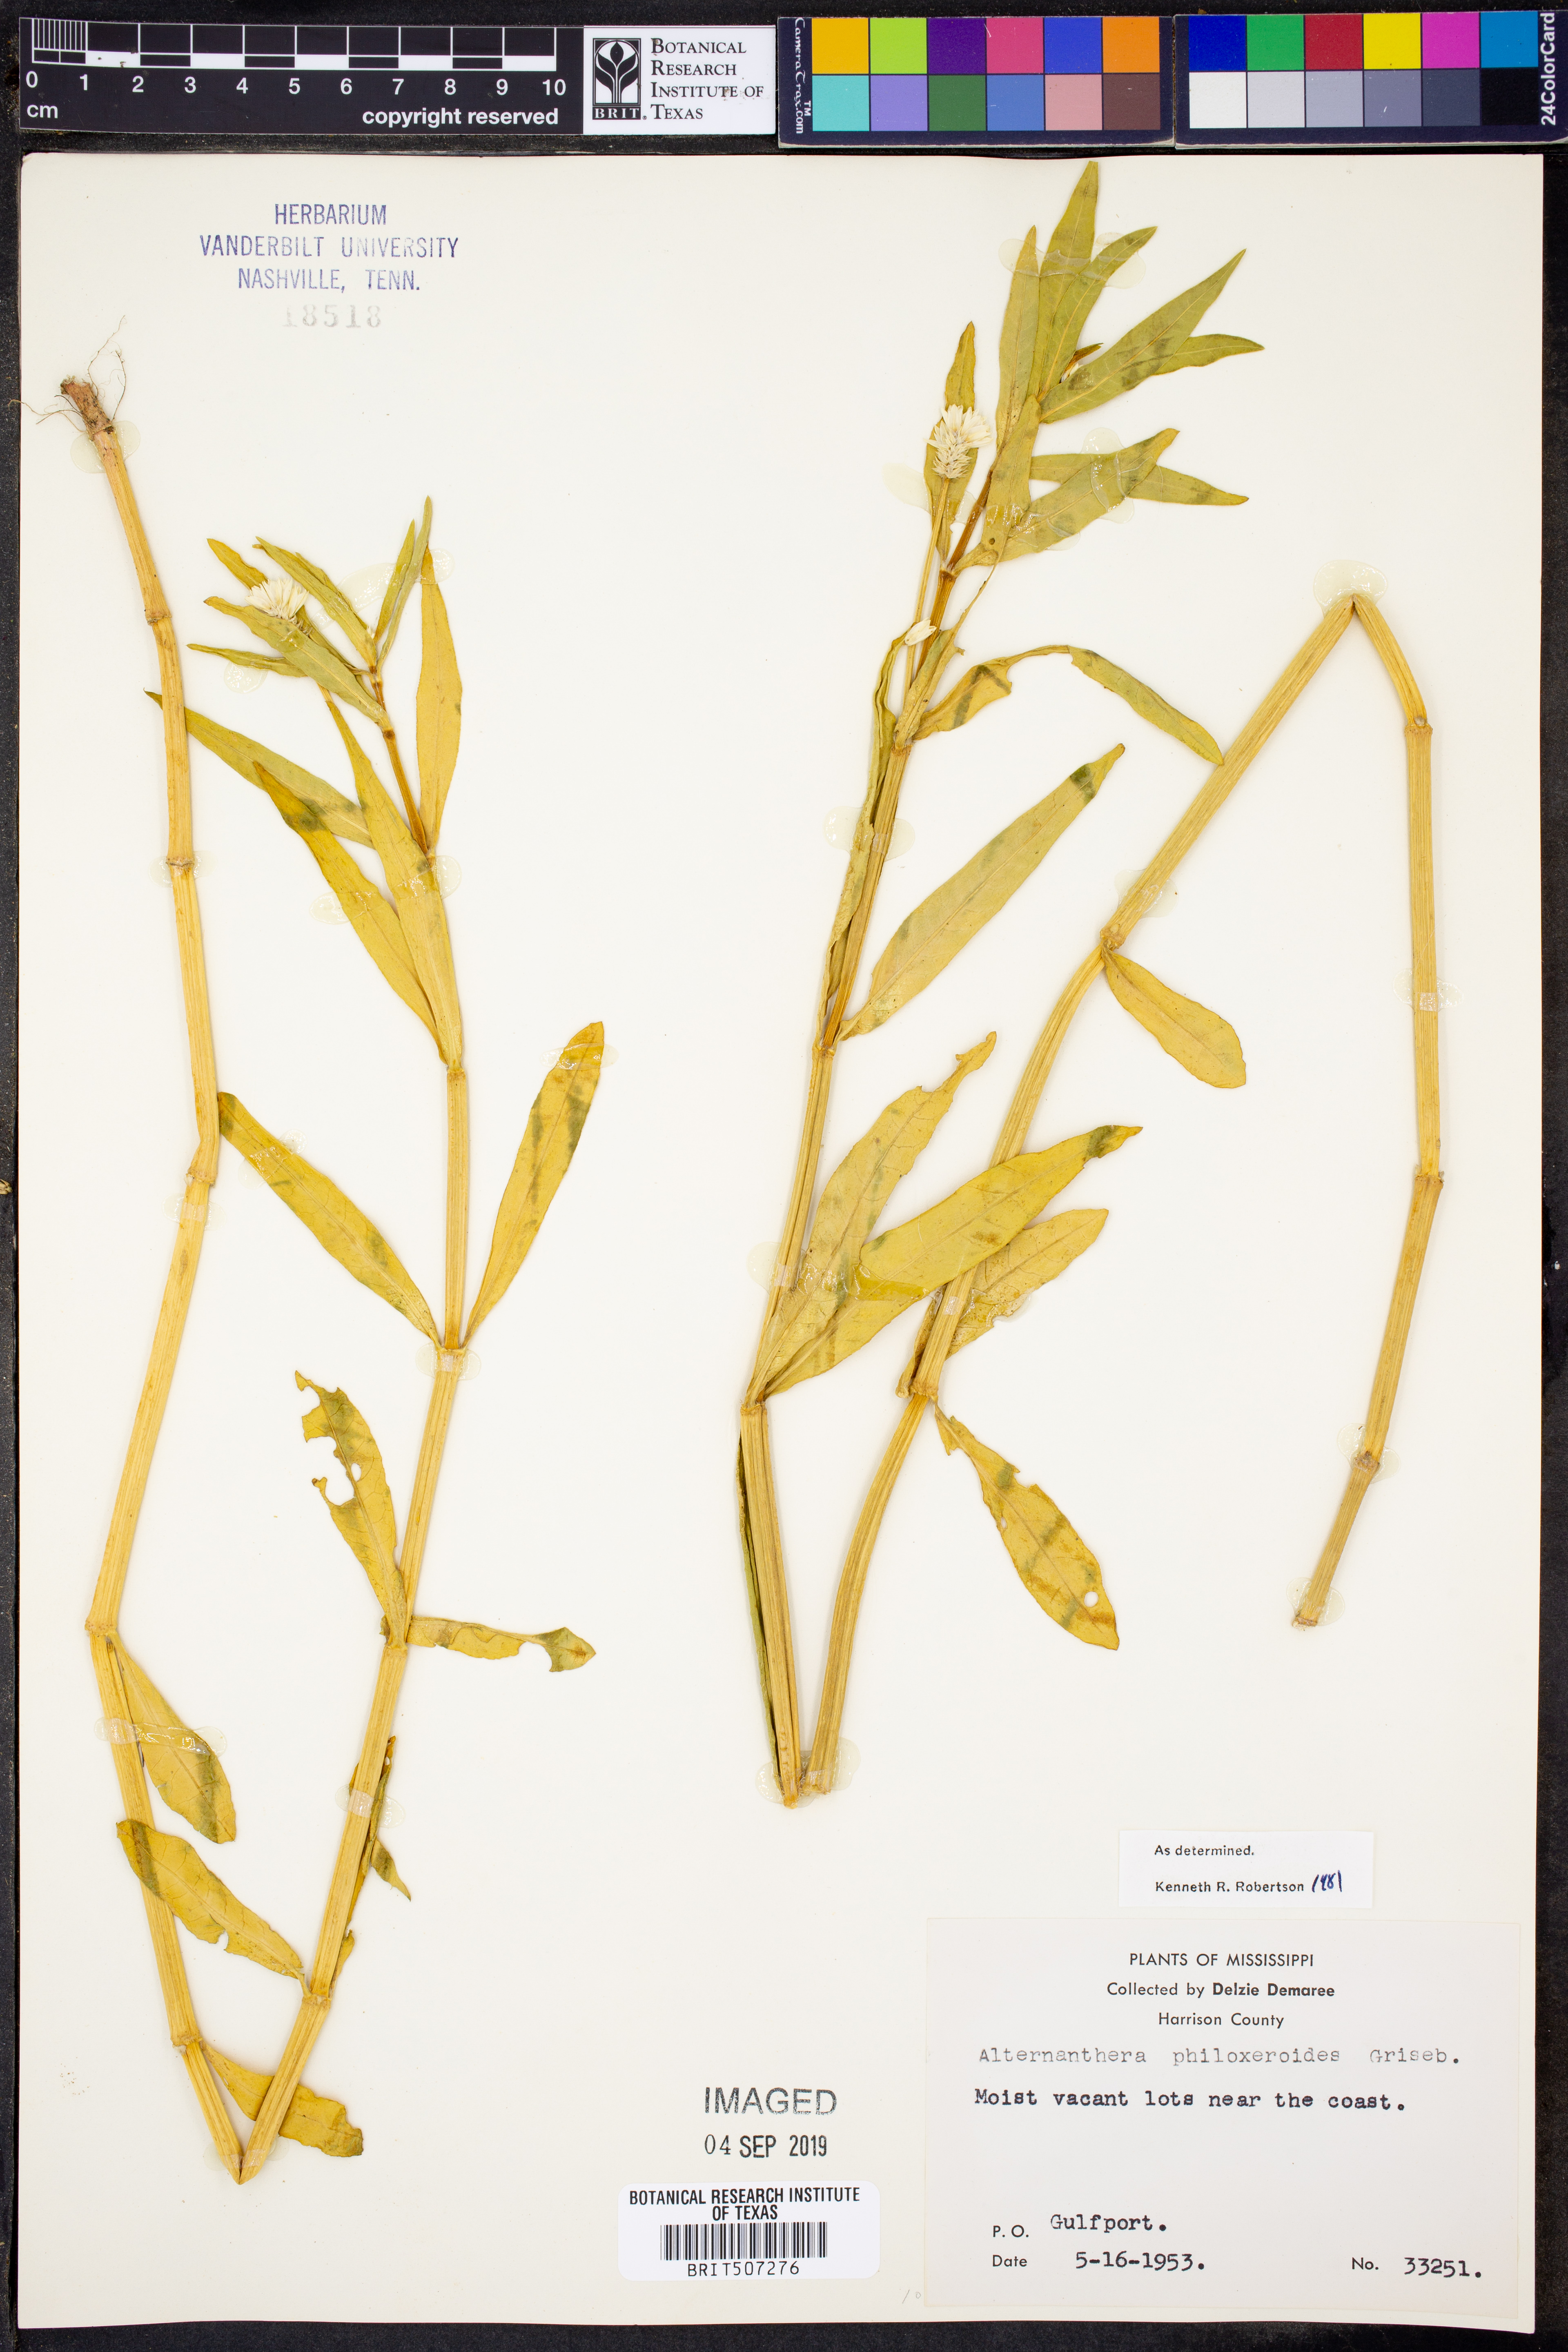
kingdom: Plantae
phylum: Tracheophyta
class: Magnoliopsida
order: Caryophyllales
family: Amaranthaceae
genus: Alternanthera
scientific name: Alternanthera philoxeroides
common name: Alligatorweed
